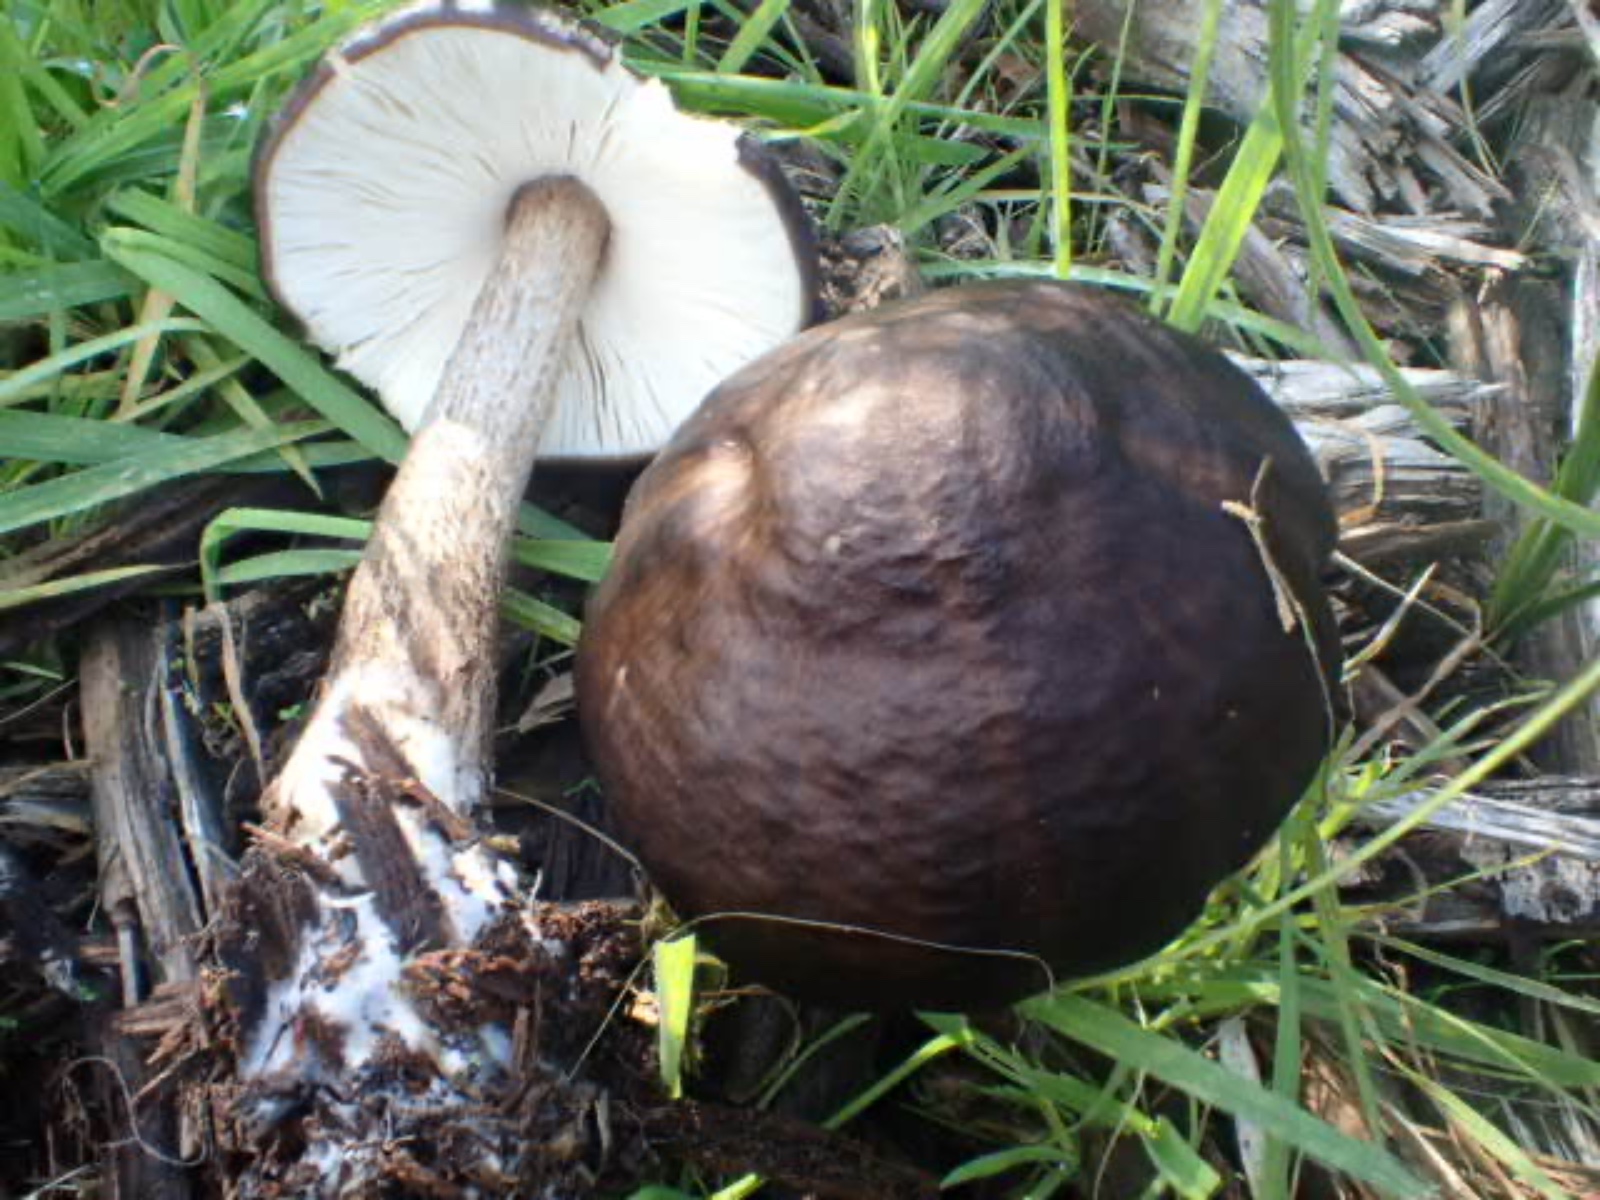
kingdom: Fungi
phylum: Basidiomycota
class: Agaricomycetes
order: Agaricales
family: Pluteaceae
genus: Pluteus
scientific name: Pluteus cervinus
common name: sodfarvet skærmhat
